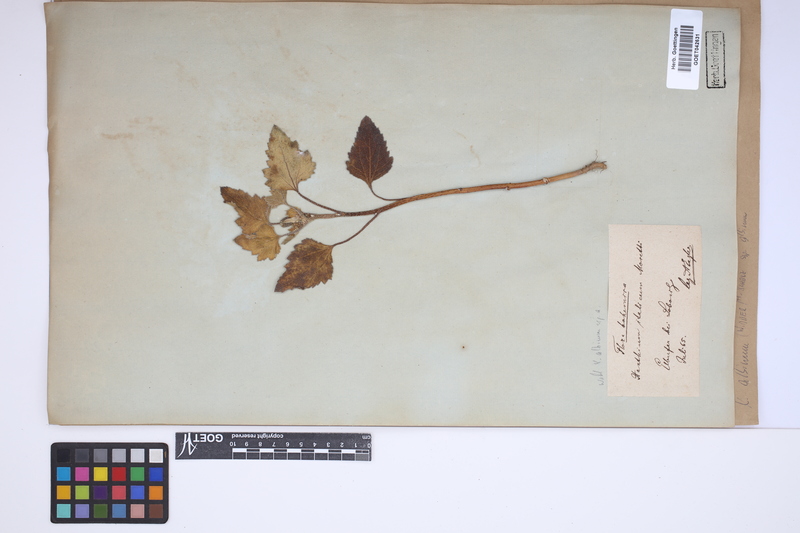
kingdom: Plantae
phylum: Tracheophyta
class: Magnoliopsida
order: Asterales
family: Asteraceae
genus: Xanthium
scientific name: Xanthium orientale
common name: Californian burr
